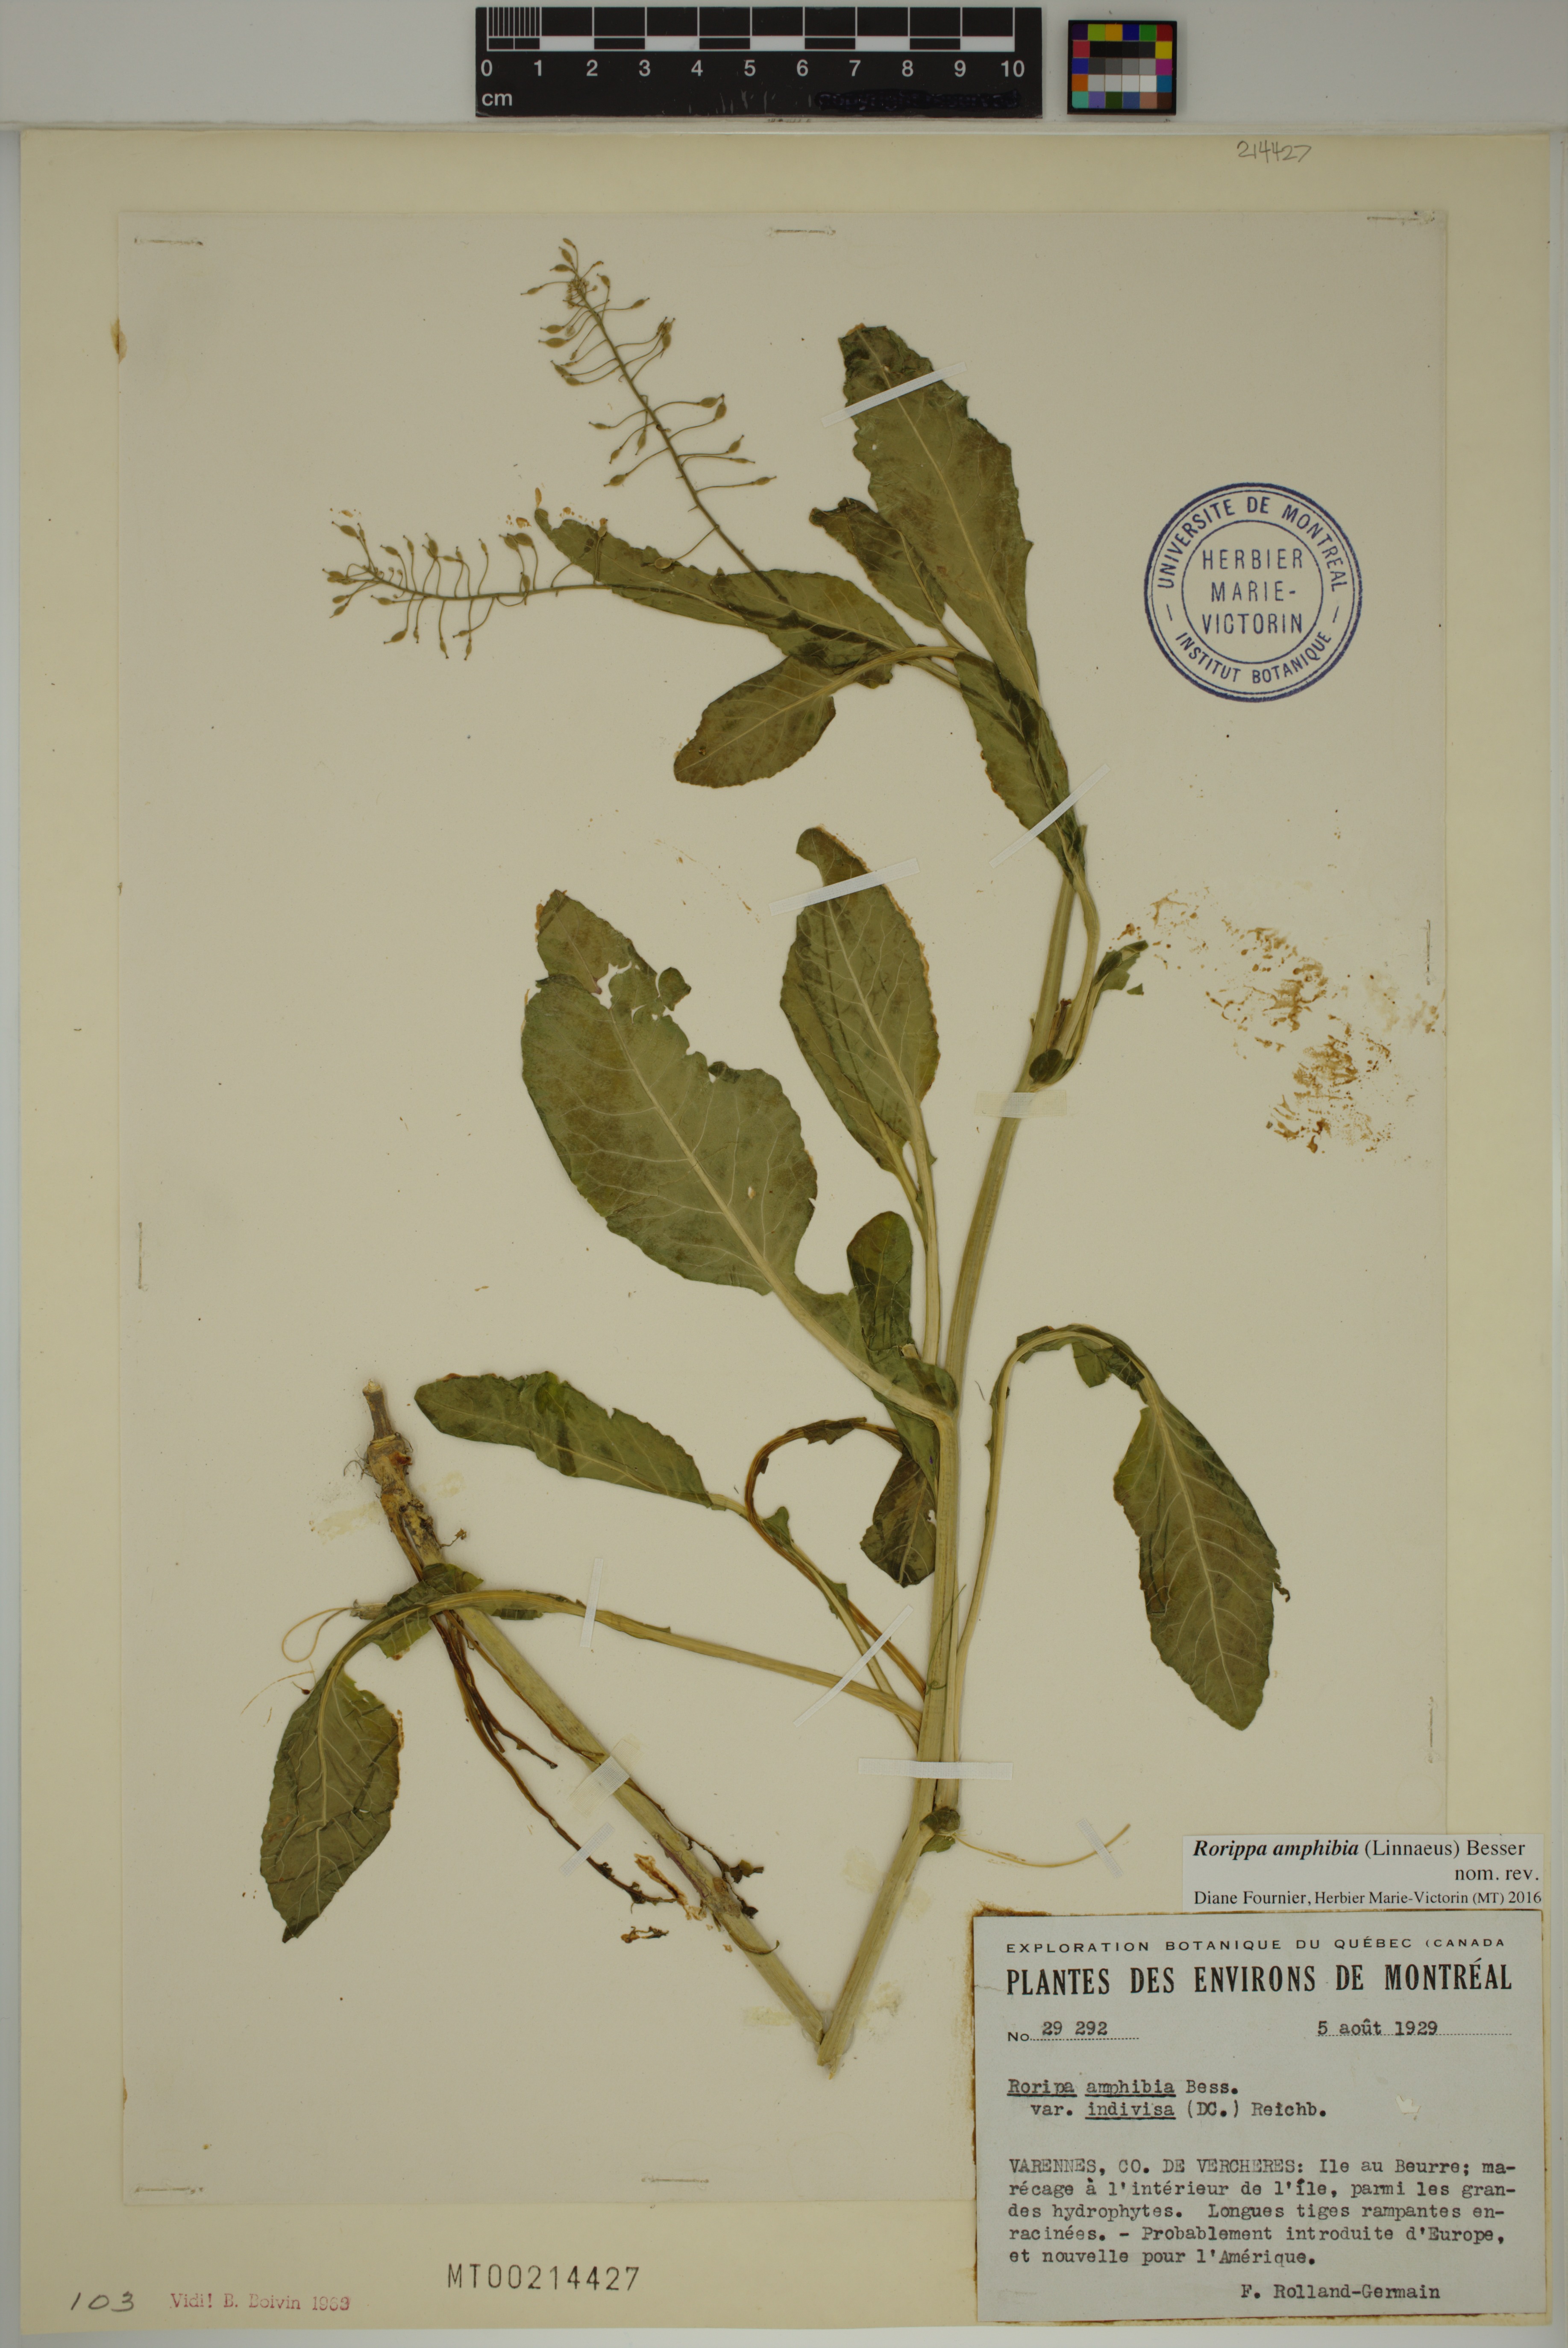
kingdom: Plantae
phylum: Tracheophyta
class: Magnoliopsida
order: Brassicales
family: Brassicaceae
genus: Rorippa
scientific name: Rorippa amphibia
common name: Great yellow-cress
